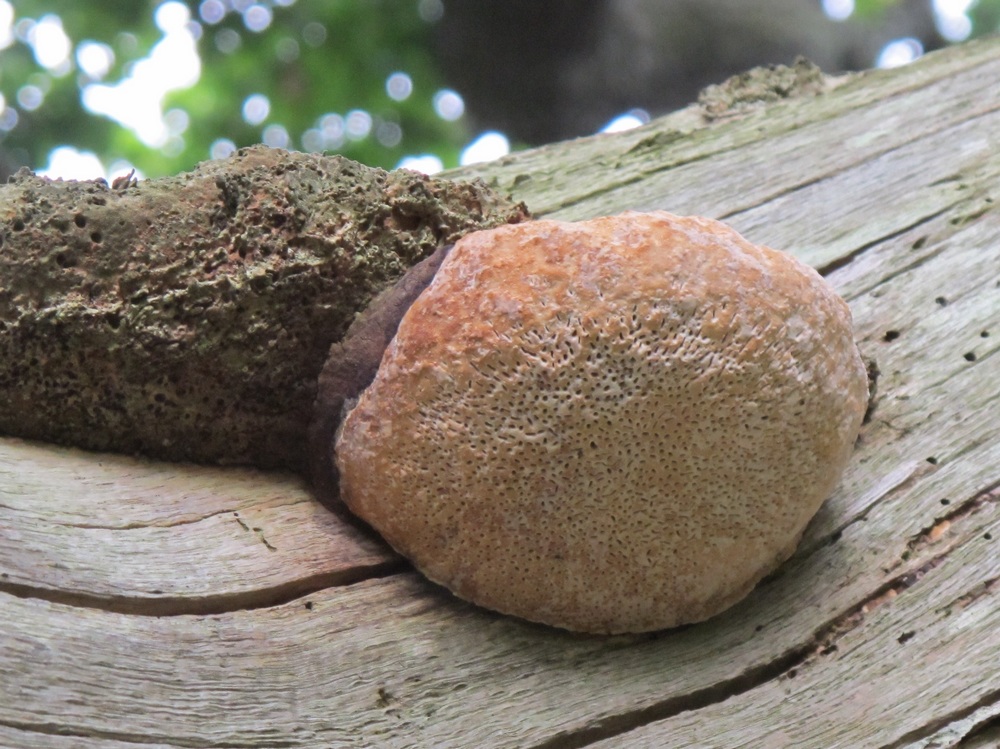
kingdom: Fungi
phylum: Basidiomycota
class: Agaricomycetes
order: Polyporales
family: Fomitopsidaceae
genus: Daedalea
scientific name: Daedalea quercina
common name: ege-labyrintsvamp
